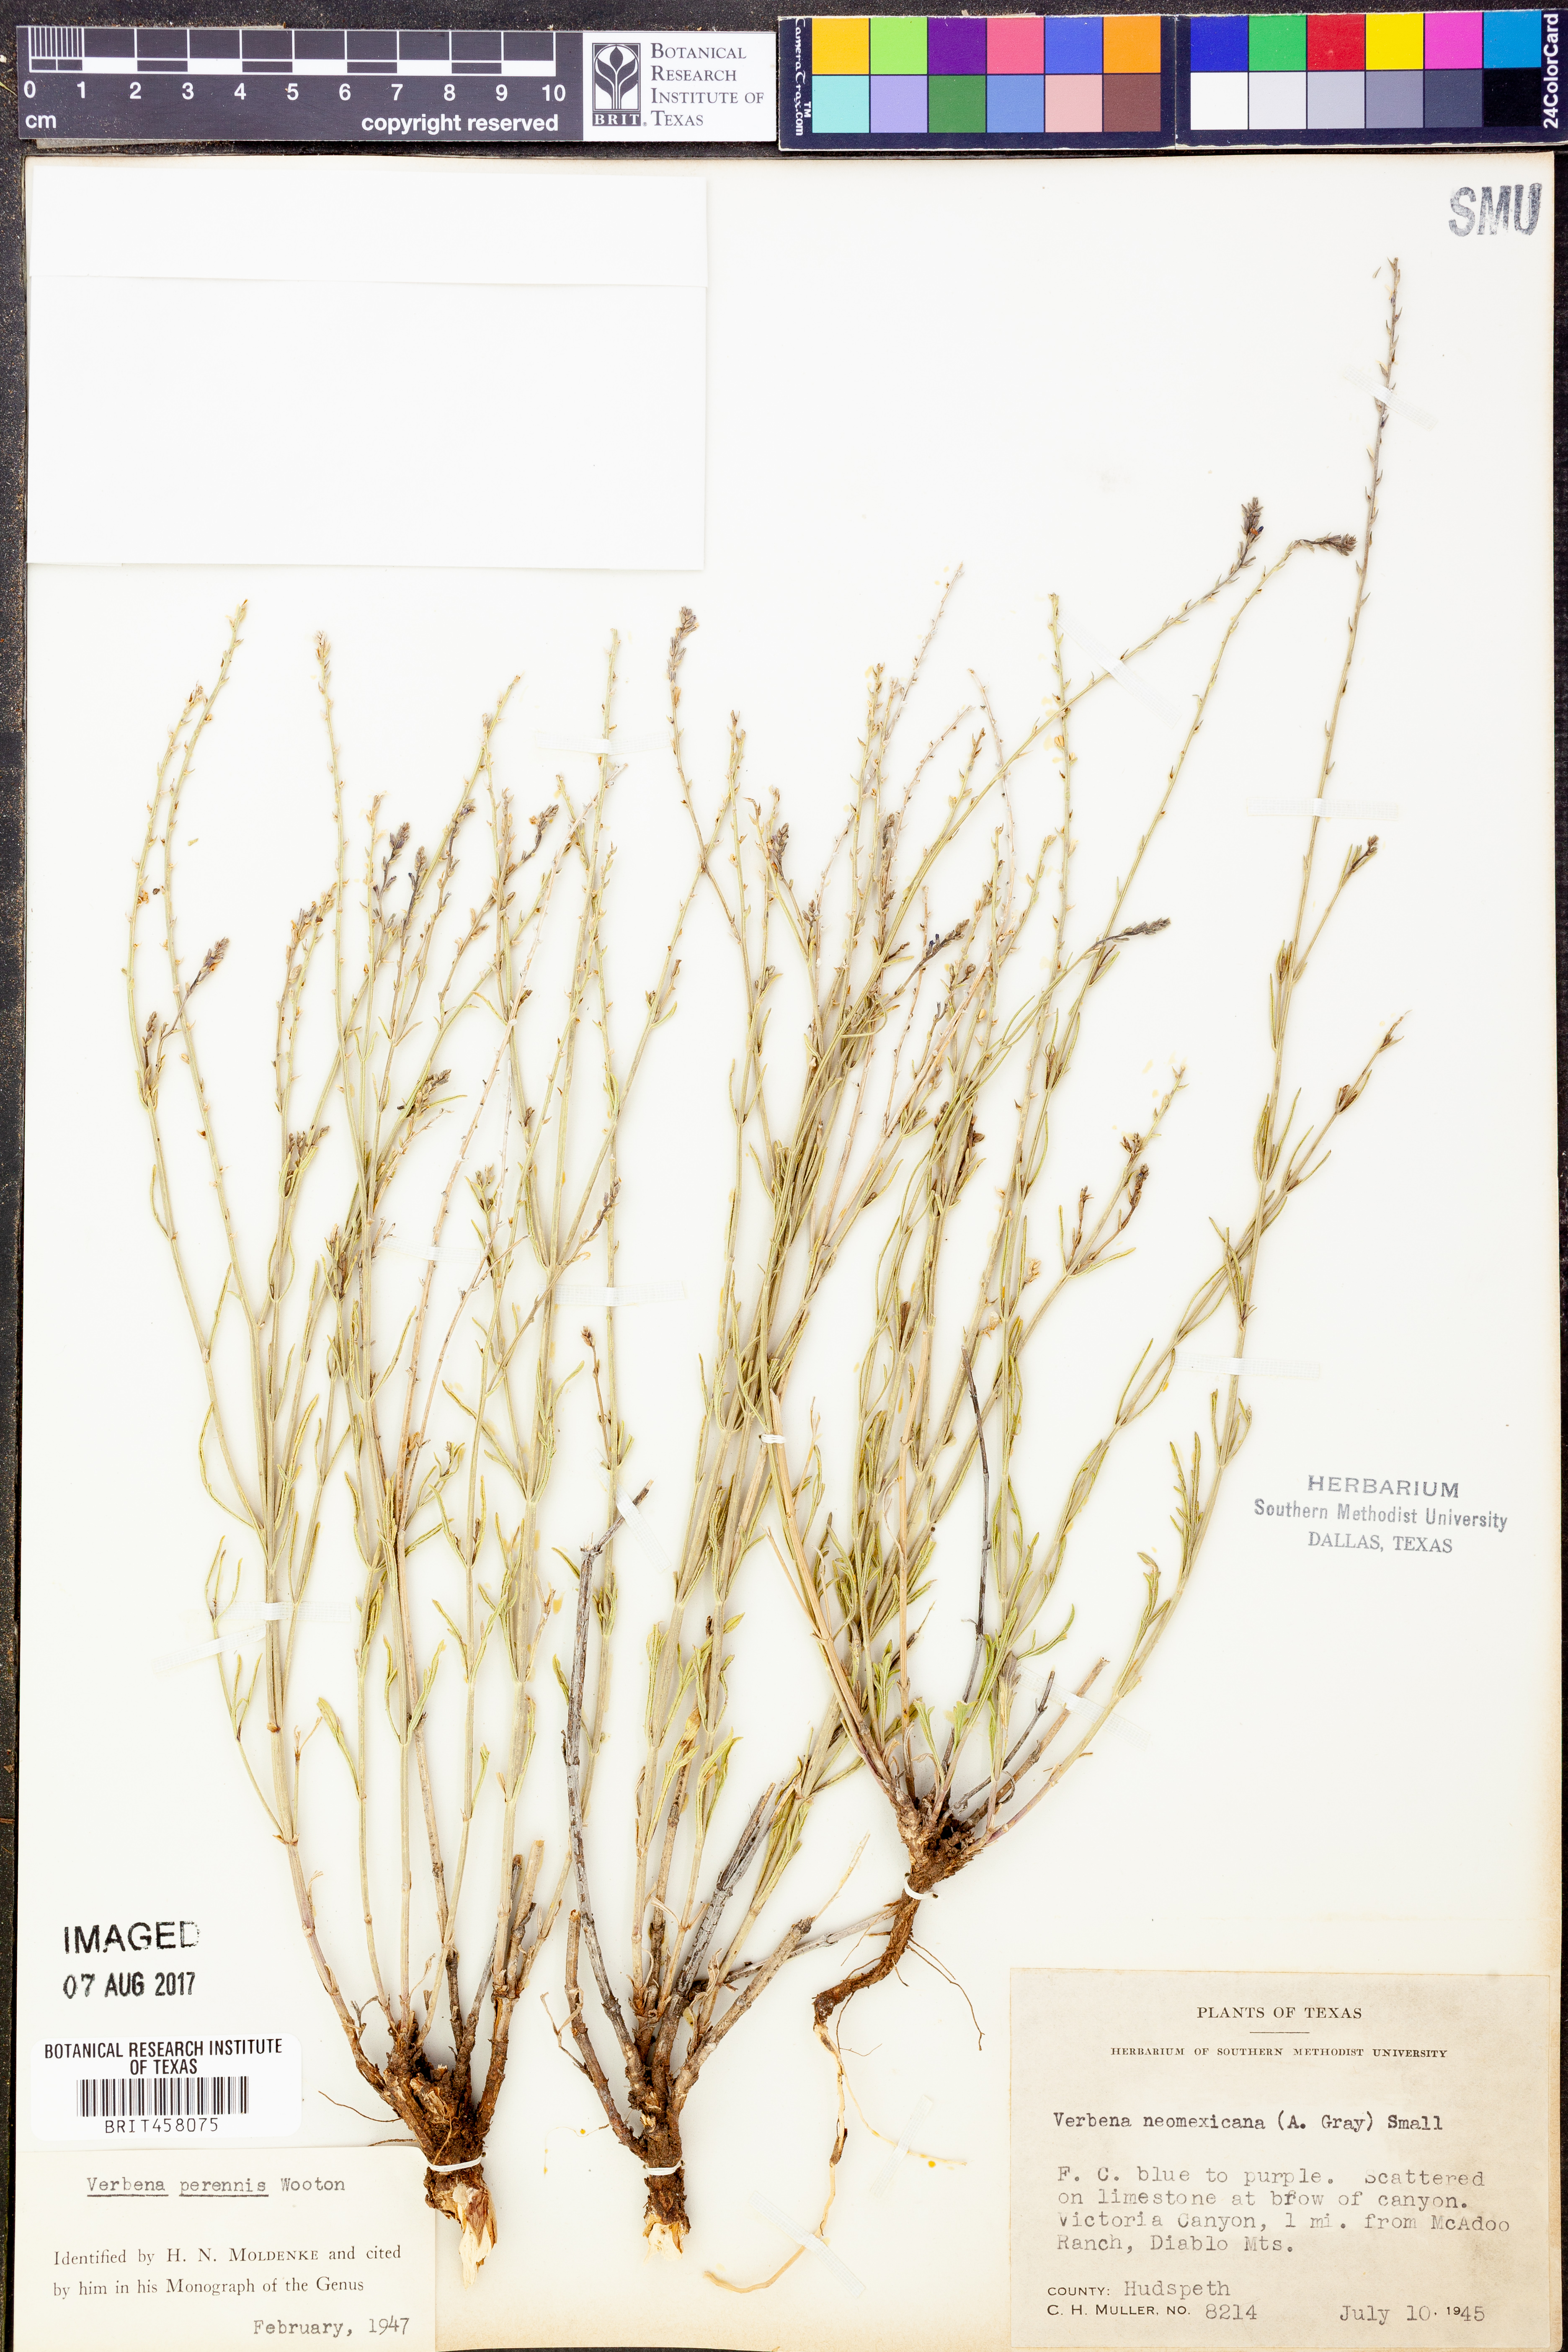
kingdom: Plantae
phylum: Tracheophyta
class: Magnoliopsida
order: Lamiales
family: Verbenaceae
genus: Verbena
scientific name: Verbena perennis
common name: Pin-leaf vervain
